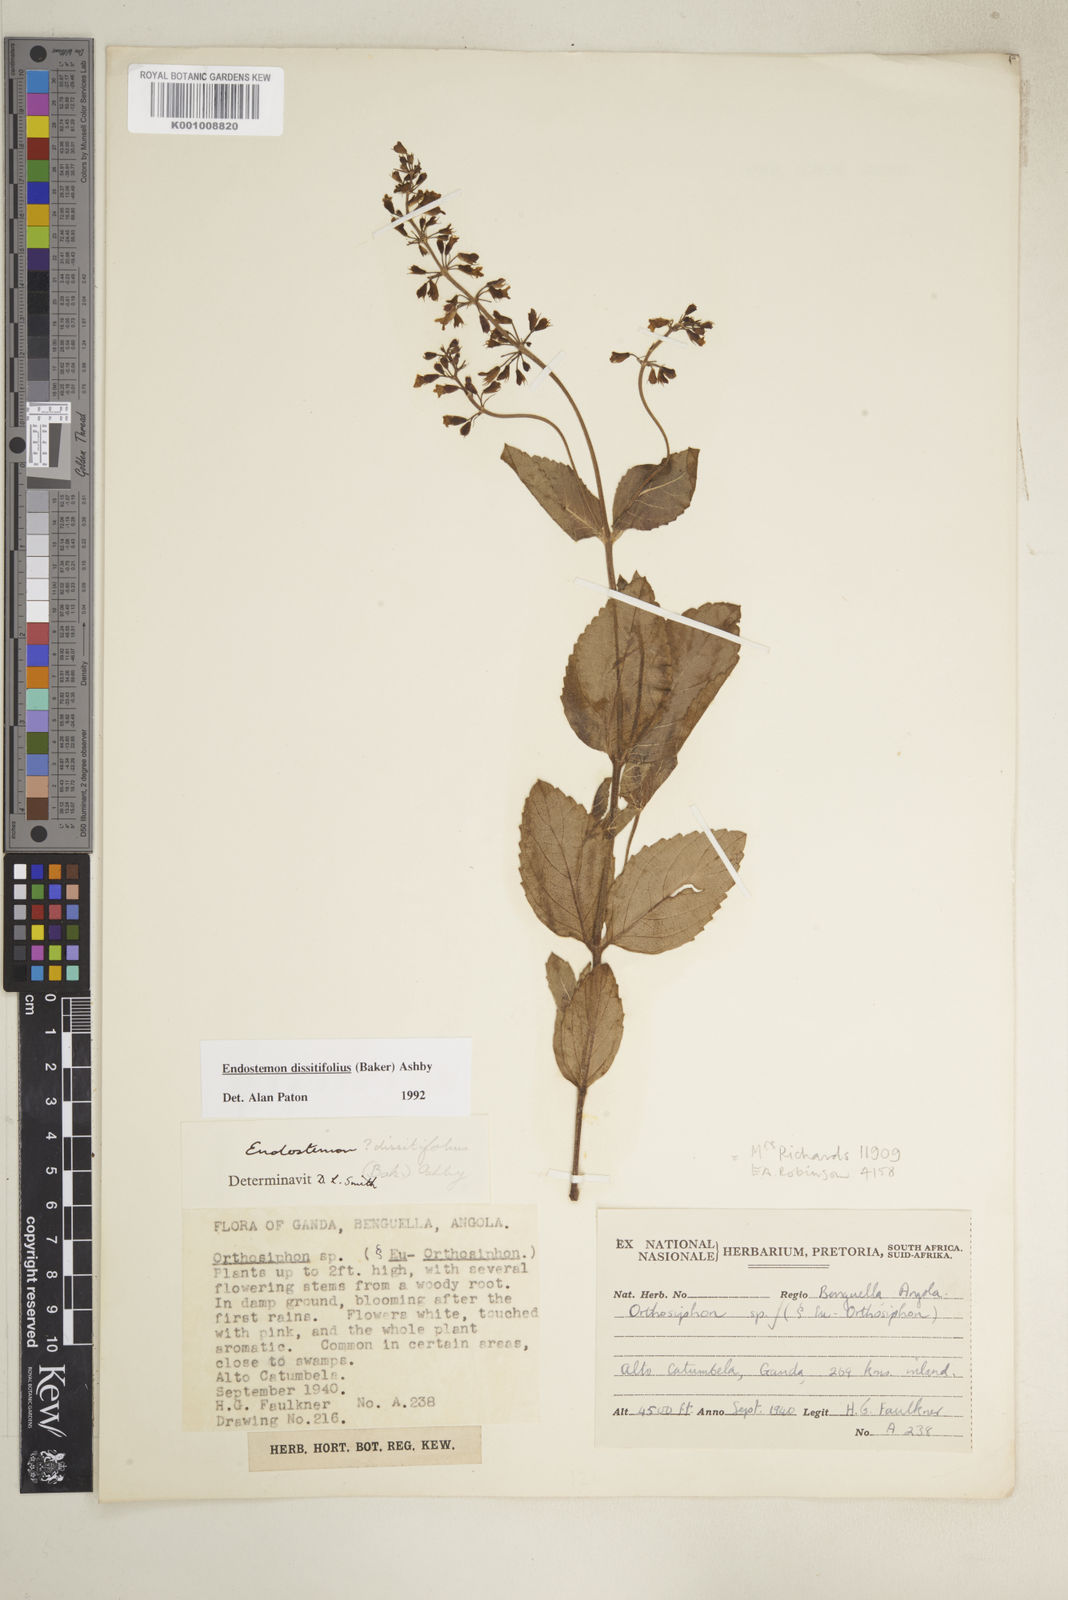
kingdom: Plantae
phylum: Tracheophyta
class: Magnoliopsida
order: Lamiales
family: Lamiaceae
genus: Endostemon
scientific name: Endostemon villosus
